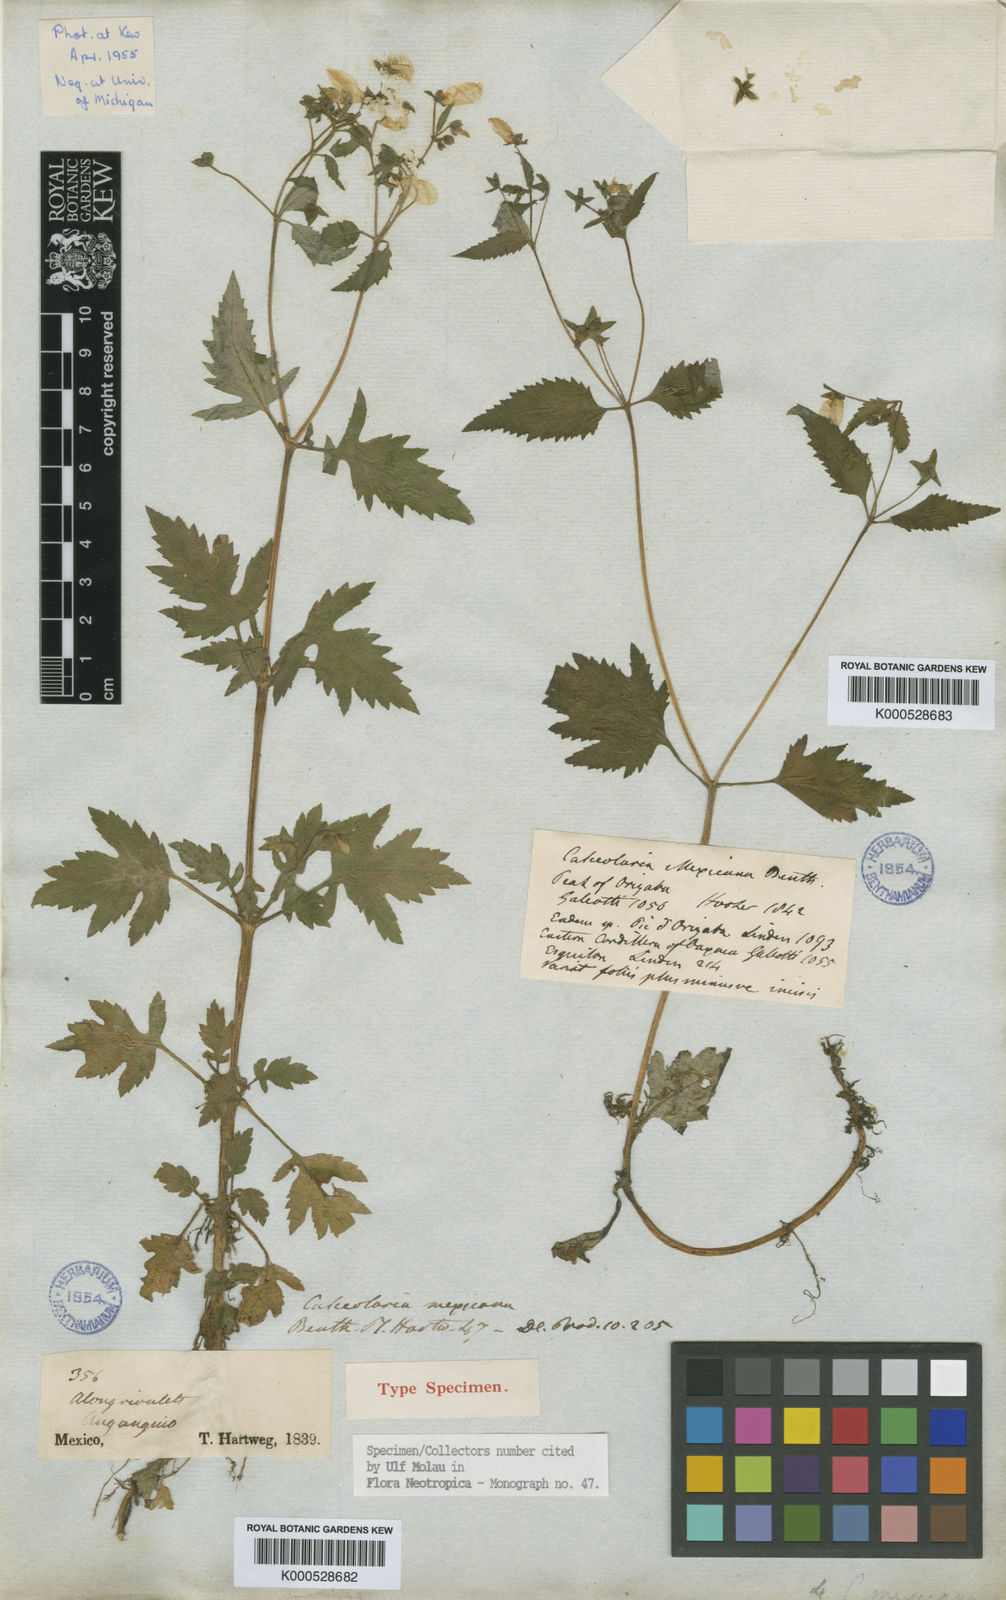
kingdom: Plantae
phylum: Tracheophyta
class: Magnoliopsida
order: Lamiales
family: Calceolariaceae
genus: Calceolaria
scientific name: Calceolaria mexicana
